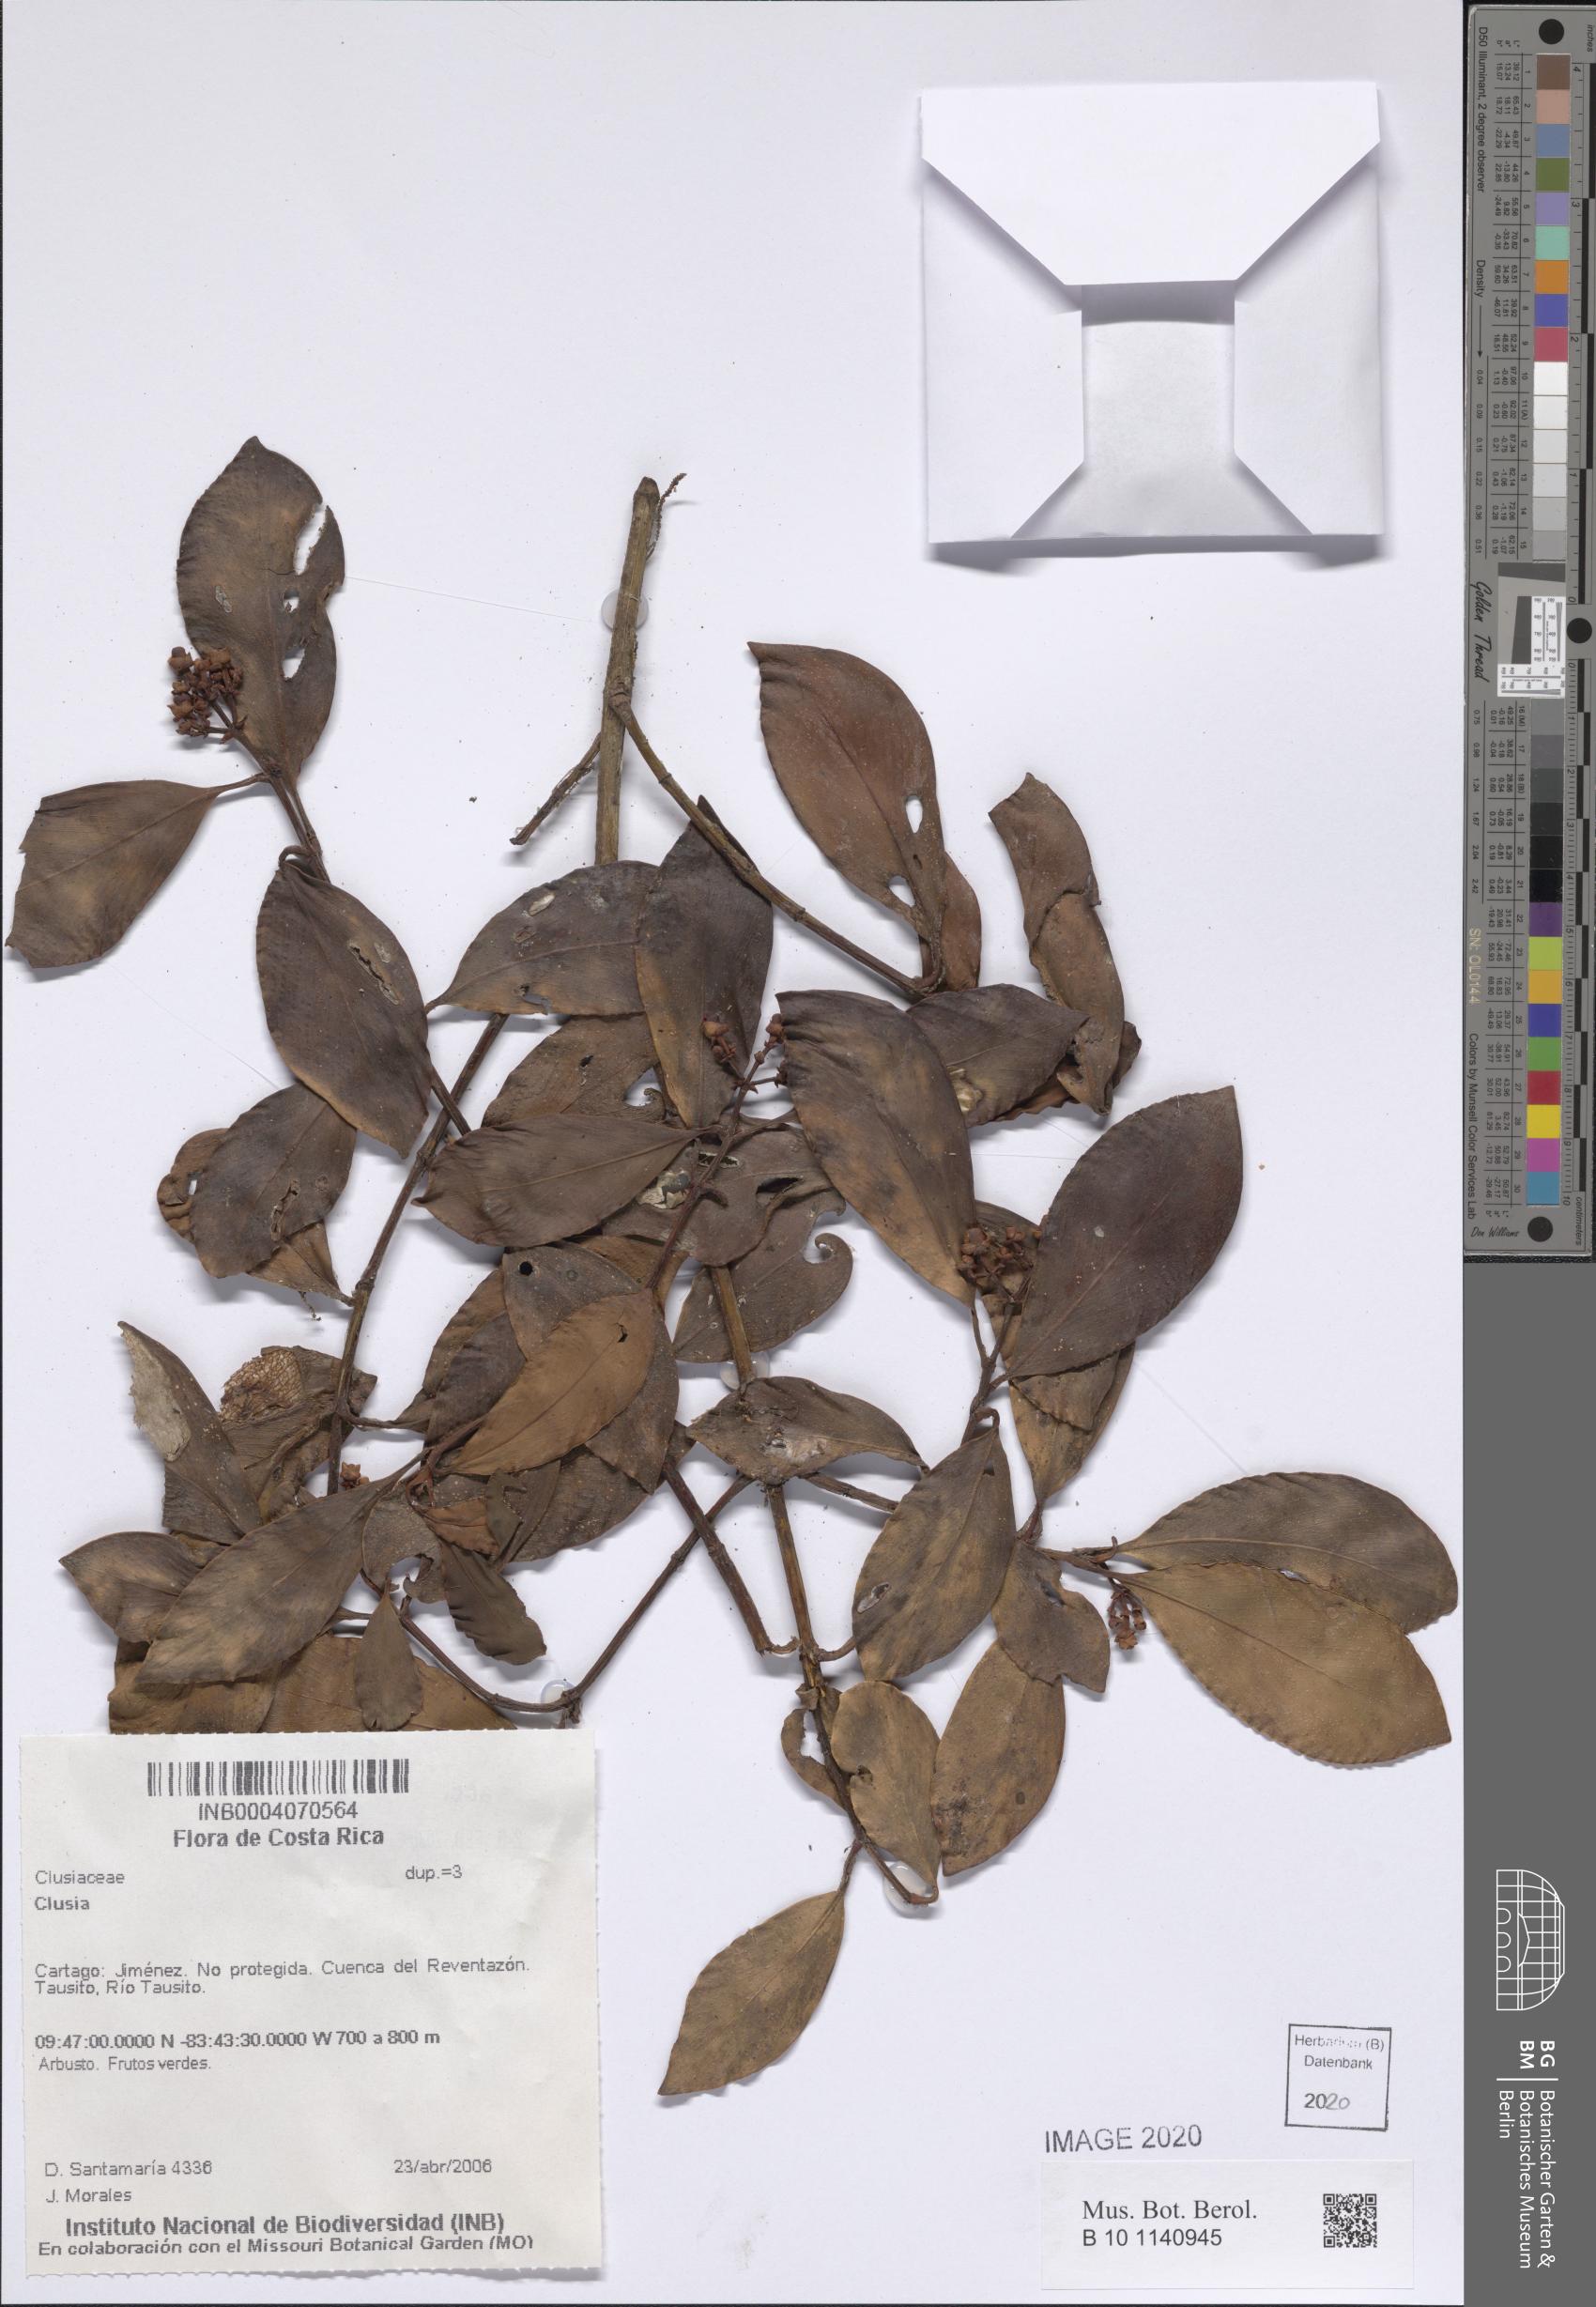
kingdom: Plantae
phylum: Tracheophyta
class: Magnoliopsida
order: Malpighiales
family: Clusiaceae
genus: Clusia
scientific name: Clusia
